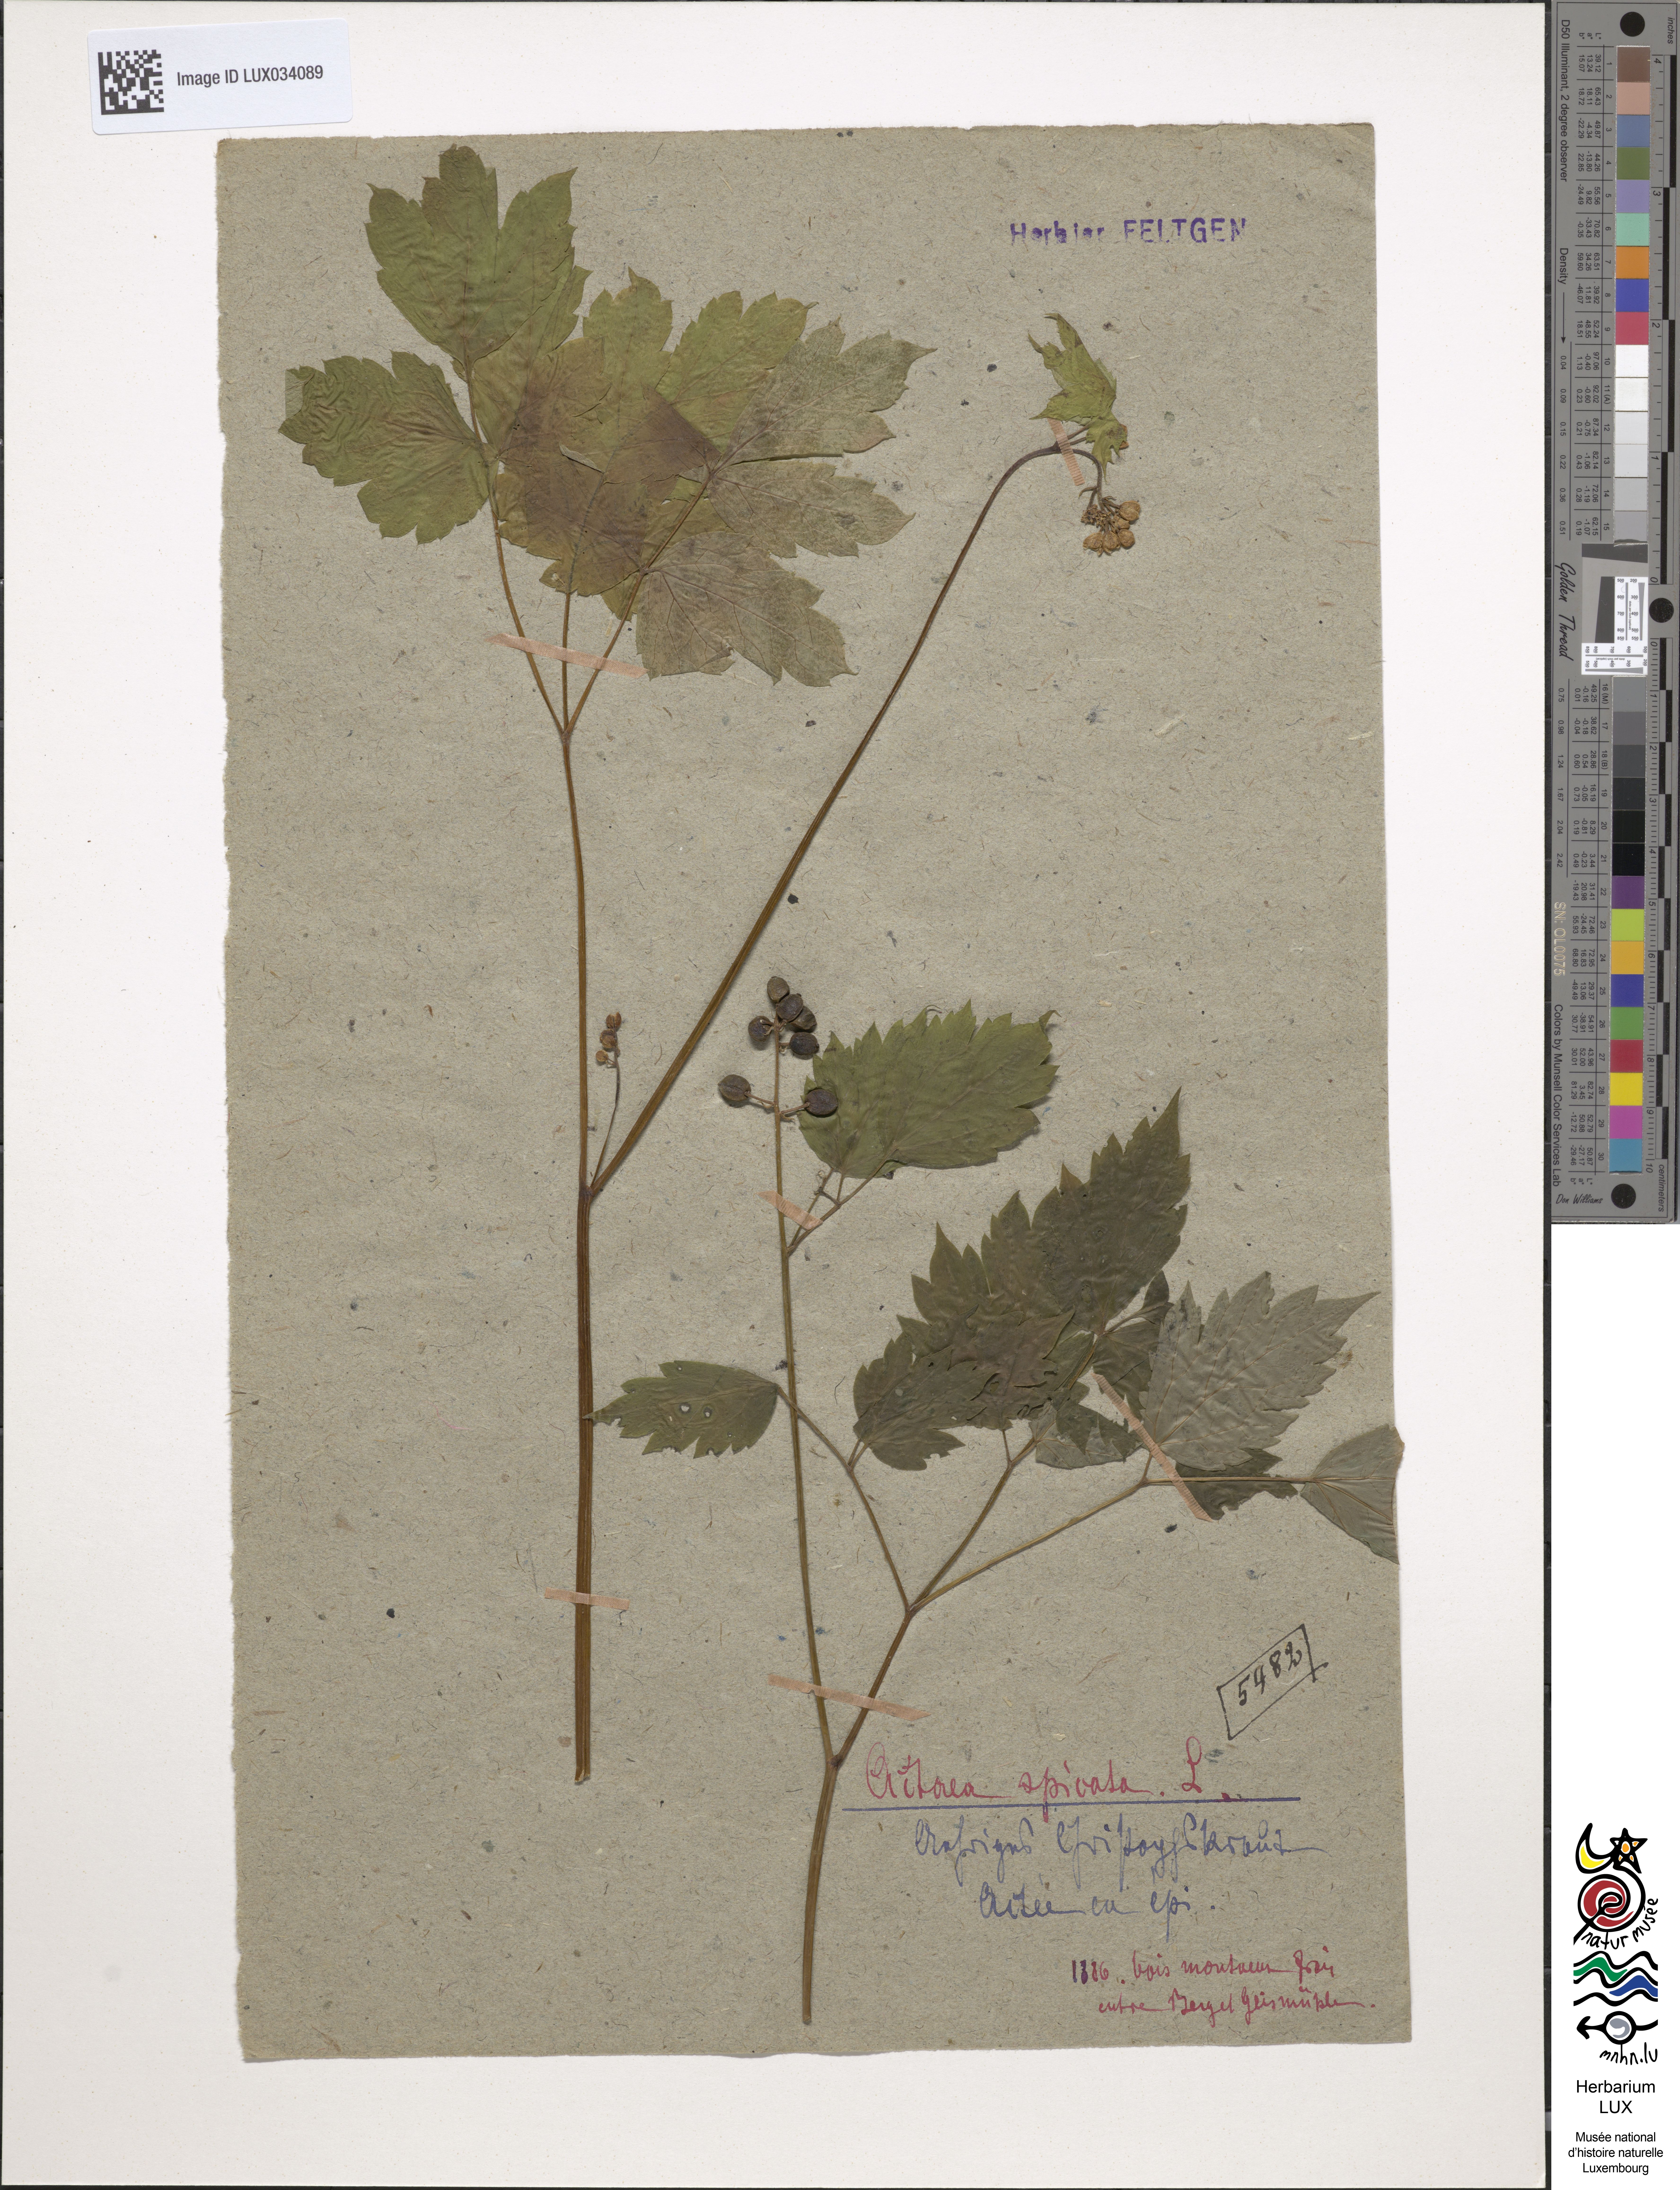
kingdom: Plantae
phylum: Tracheophyta
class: Magnoliopsida
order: Ranunculales
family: Ranunculaceae
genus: Actaea
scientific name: Actaea spicata
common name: Baneberry
